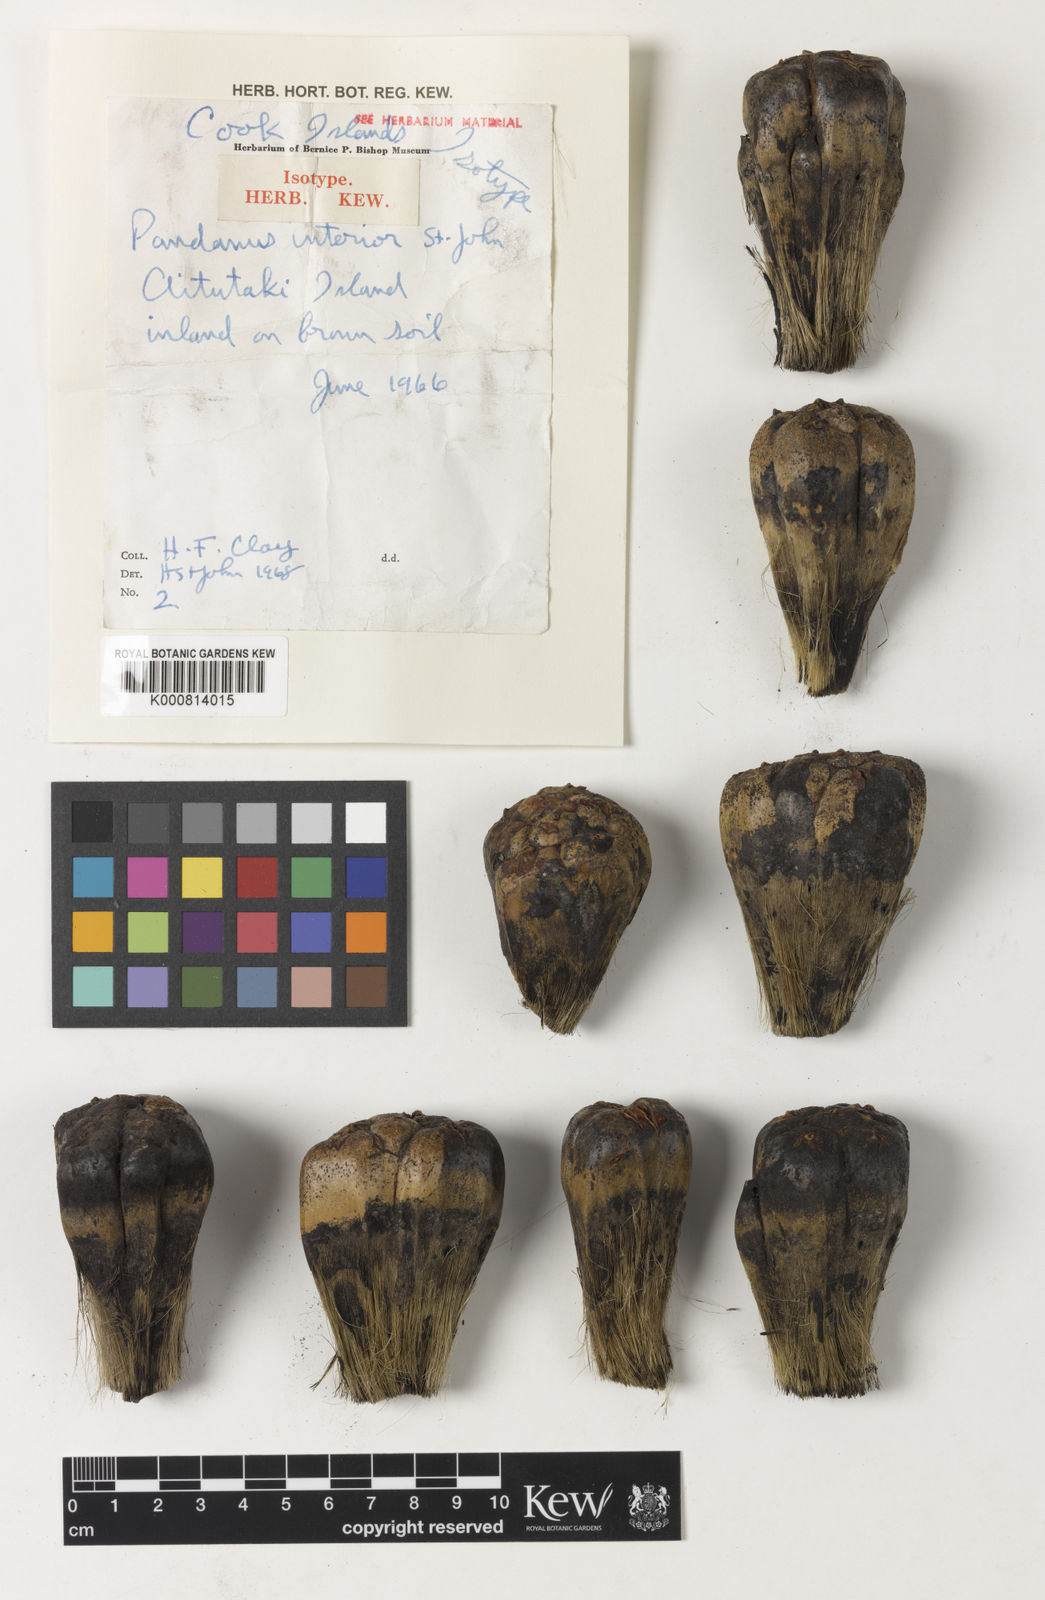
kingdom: Plantae
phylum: Tracheophyta
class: Liliopsida
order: Pandanales
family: Pandanaceae
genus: Pandanus
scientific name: Pandanus tectorius
